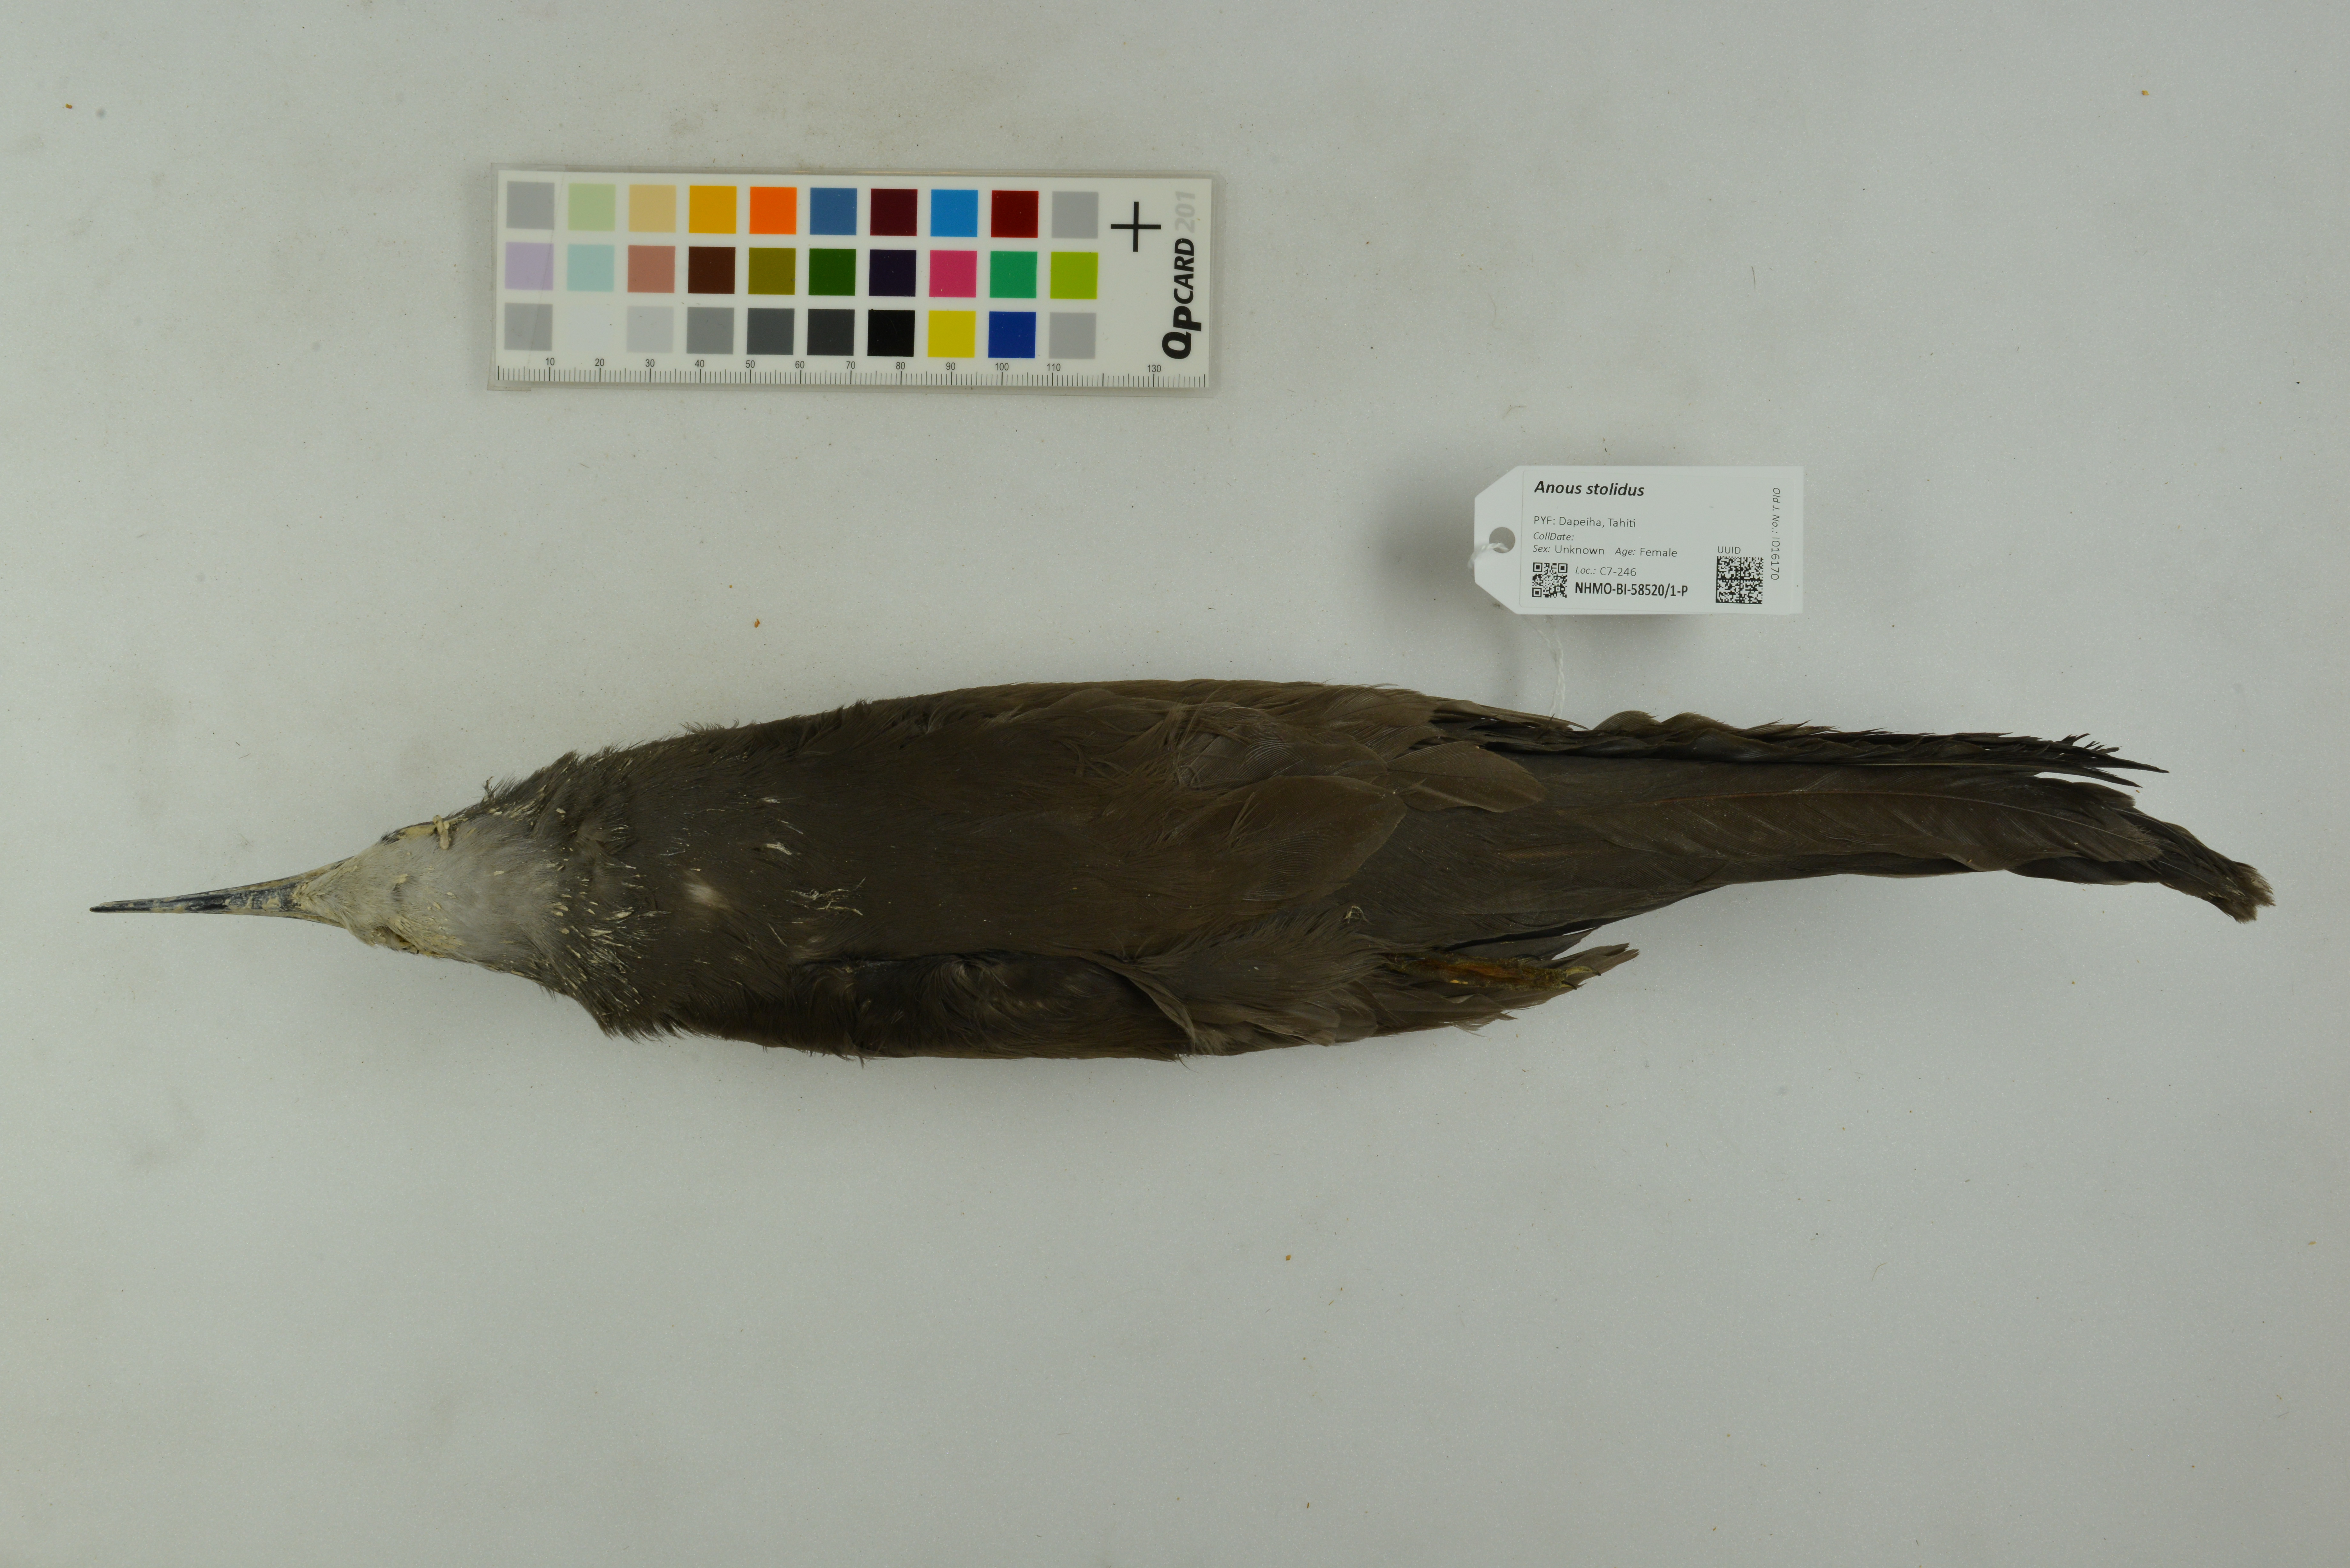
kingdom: Animalia
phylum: Chordata
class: Aves
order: Charadriiformes
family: Laridae
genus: Anous
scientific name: Anous stolidus
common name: Brown noddy
